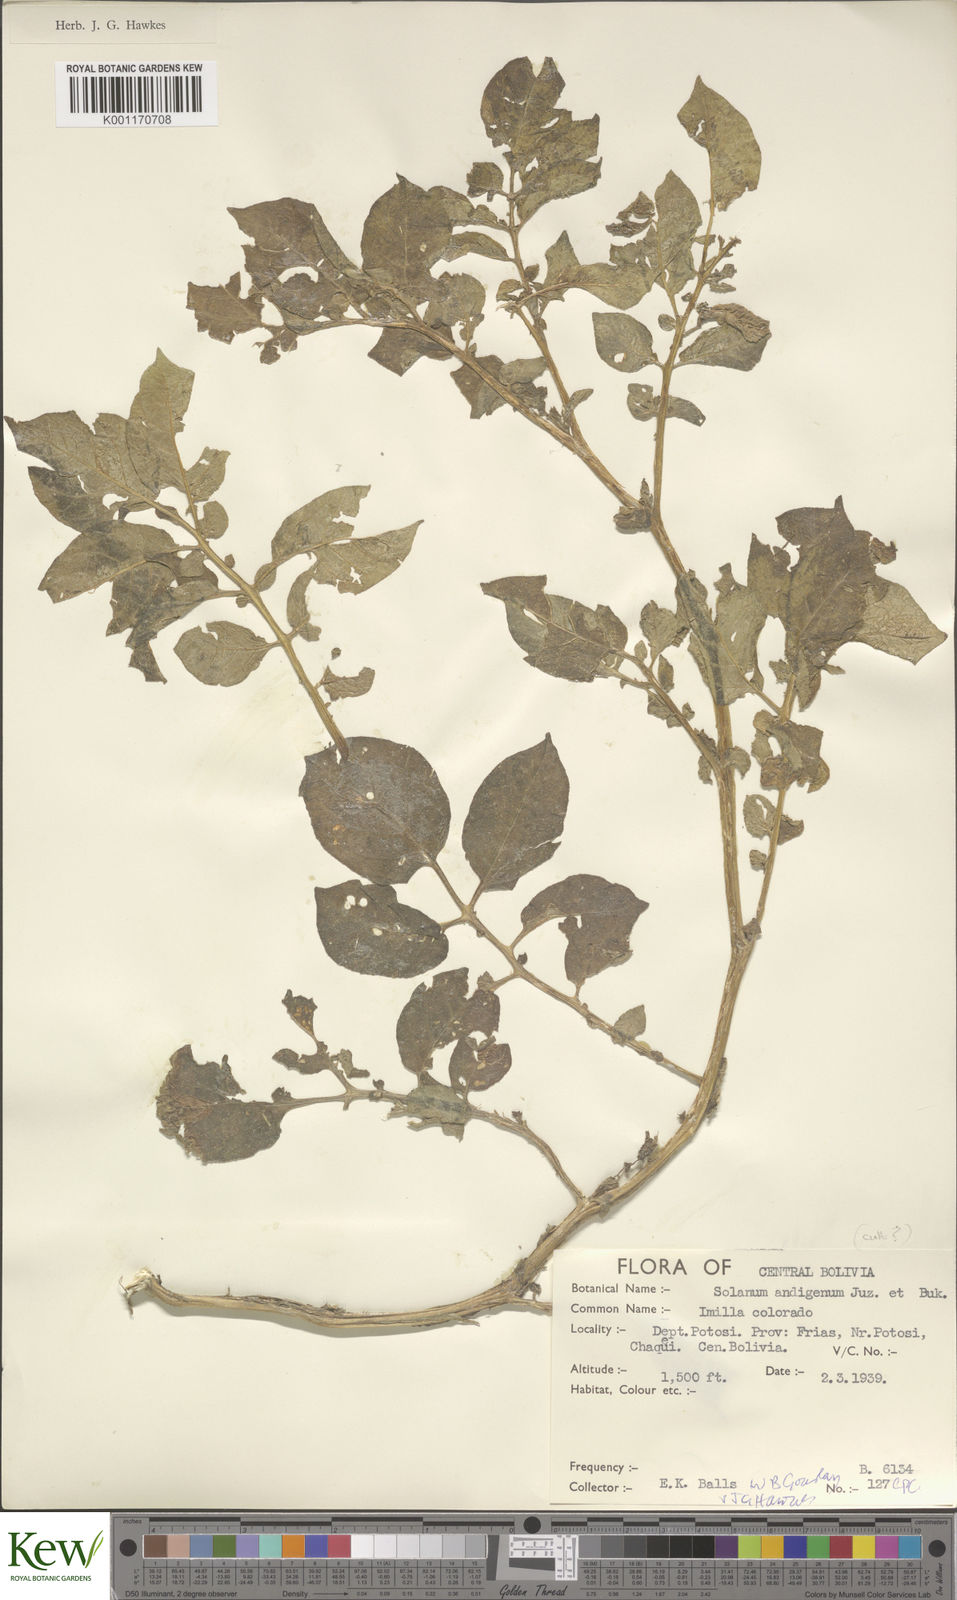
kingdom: Plantae
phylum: Tracheophyta
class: Magnoliopsida
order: Solanales
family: Solanaceae
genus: Solanum
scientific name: Solanum tuberosum
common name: Potato
